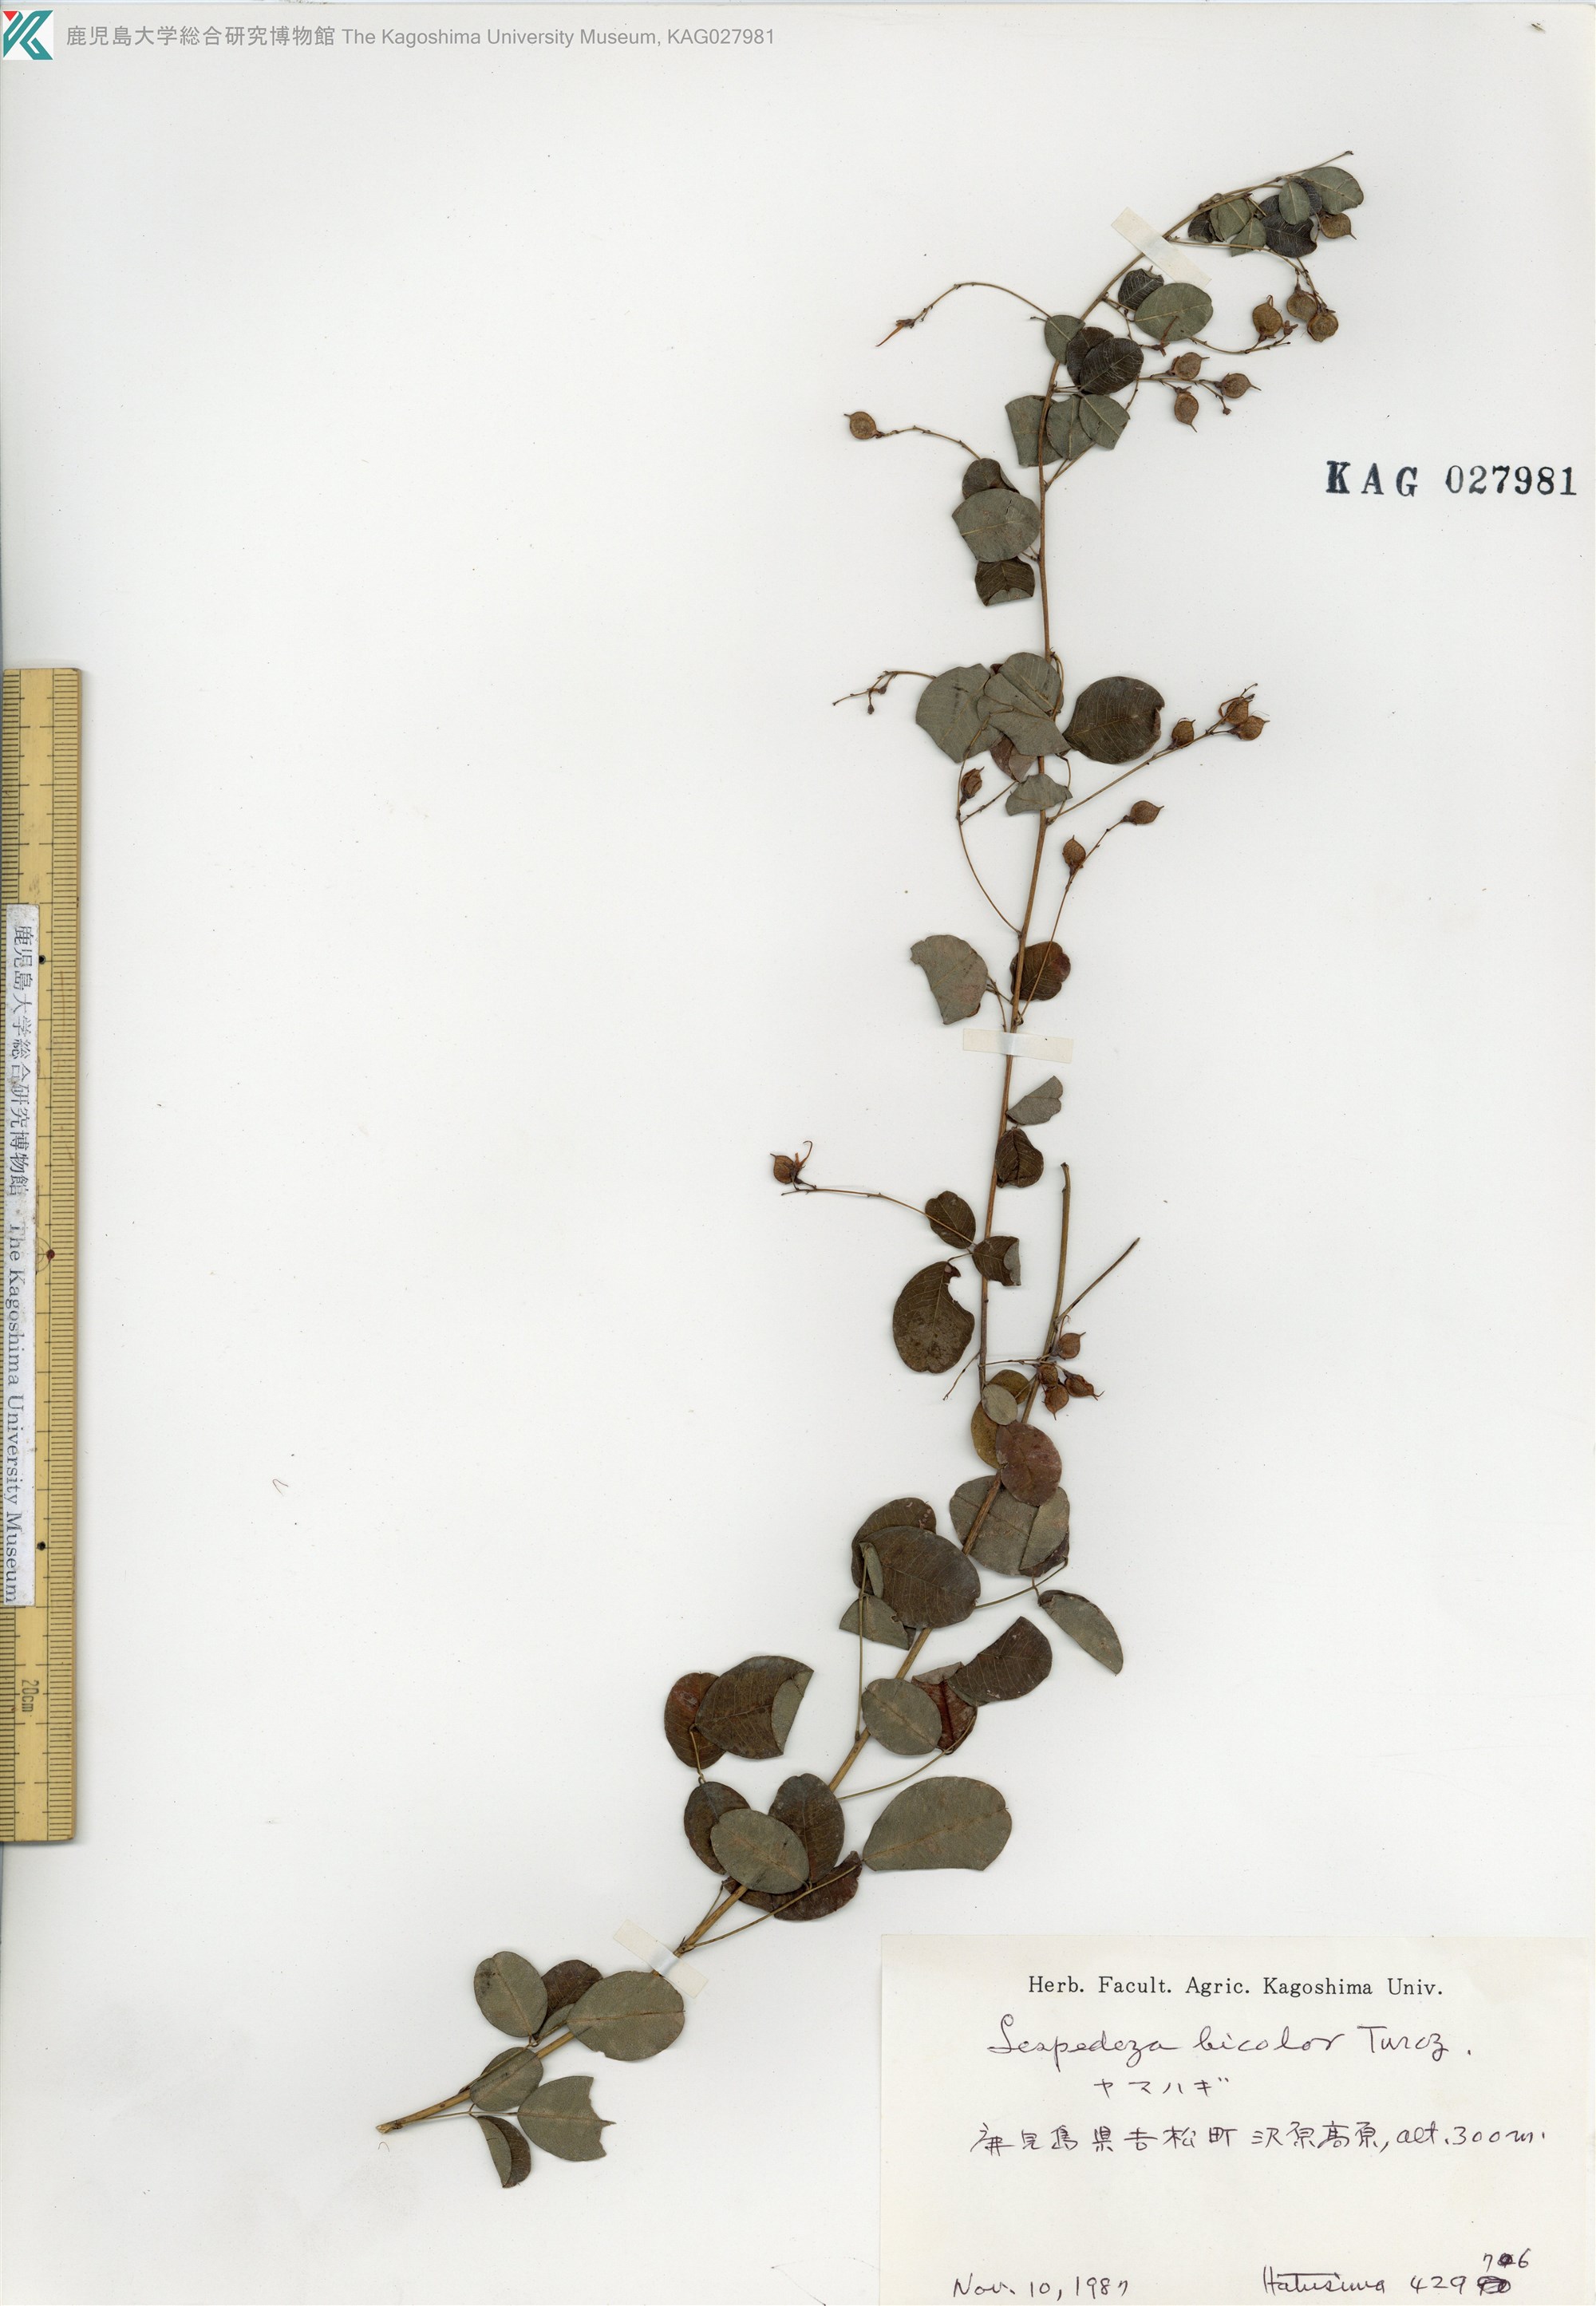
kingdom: Plantae
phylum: Tracheophyta
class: Magnoliopsida
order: Fabales
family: Fabaceae
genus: Lespedeza
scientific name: Lespedeza bicolor
